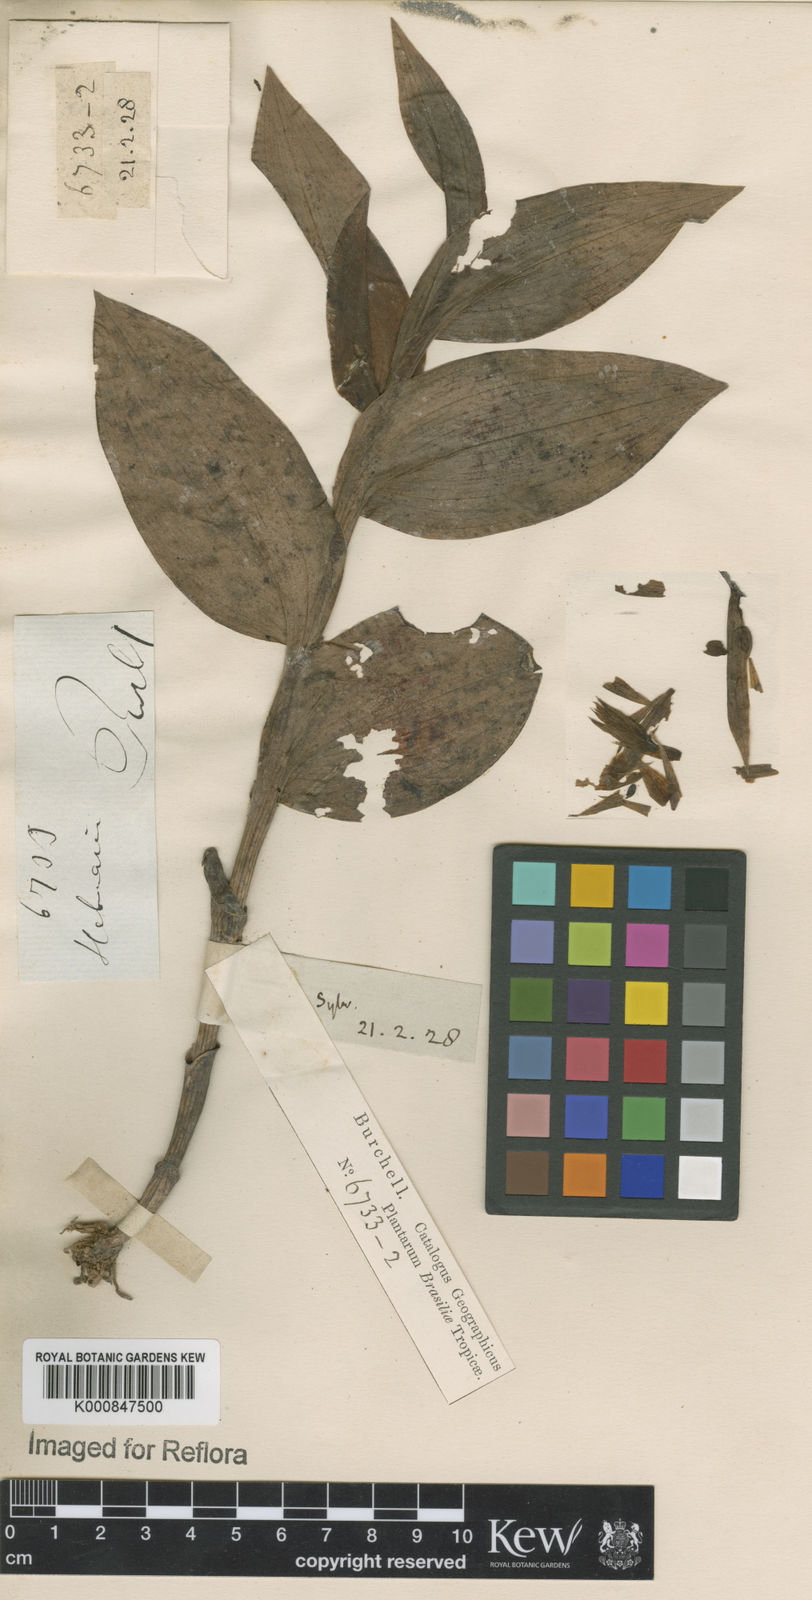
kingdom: Plantae
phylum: Tracheophyta
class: Liliopsida
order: Asparagales
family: Orchidaceae
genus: Habenaria
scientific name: Habenaria
